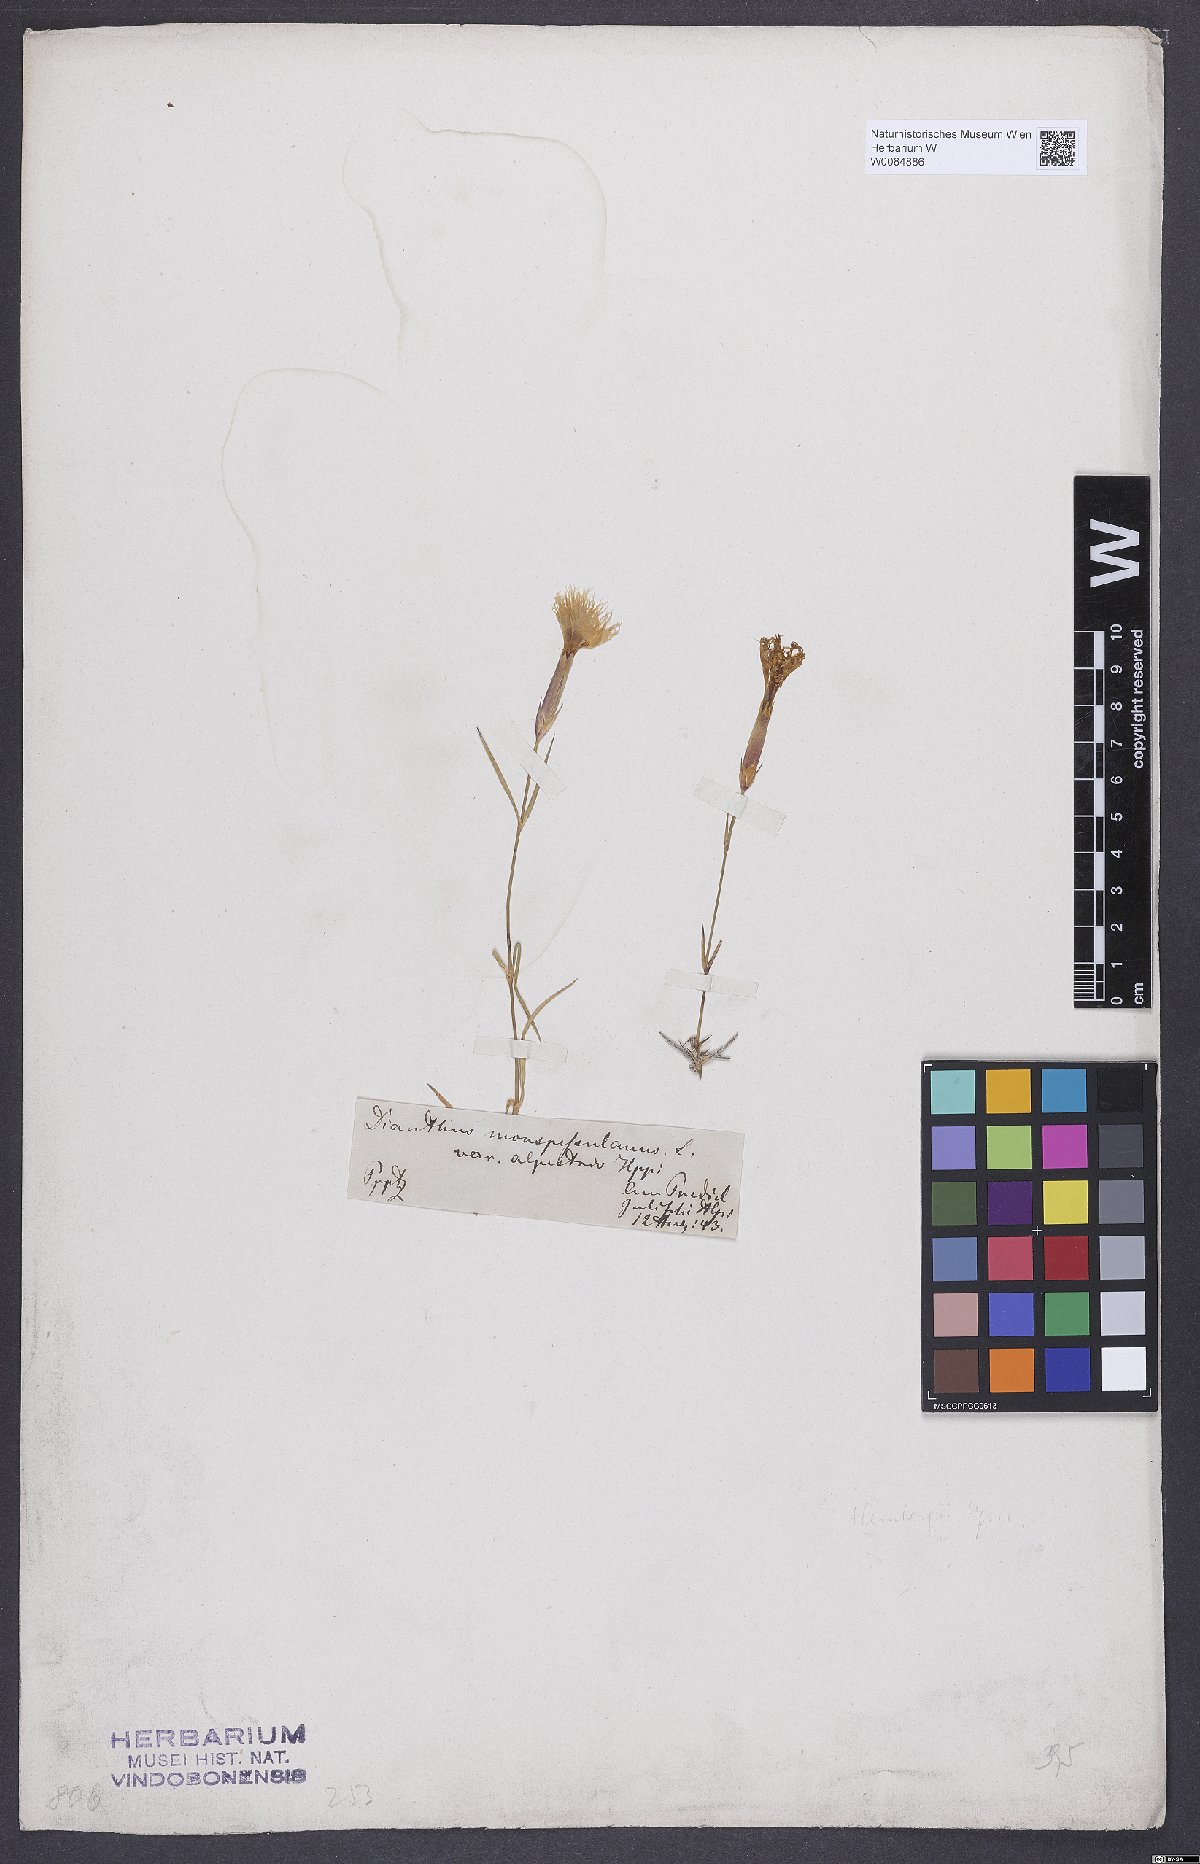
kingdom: Plantae
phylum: Tracheophyta
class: Magnoliopsida
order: Caryophyllales
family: Caryophyllaceae
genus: Dianthus
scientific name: Dianthus hyssopifolius
